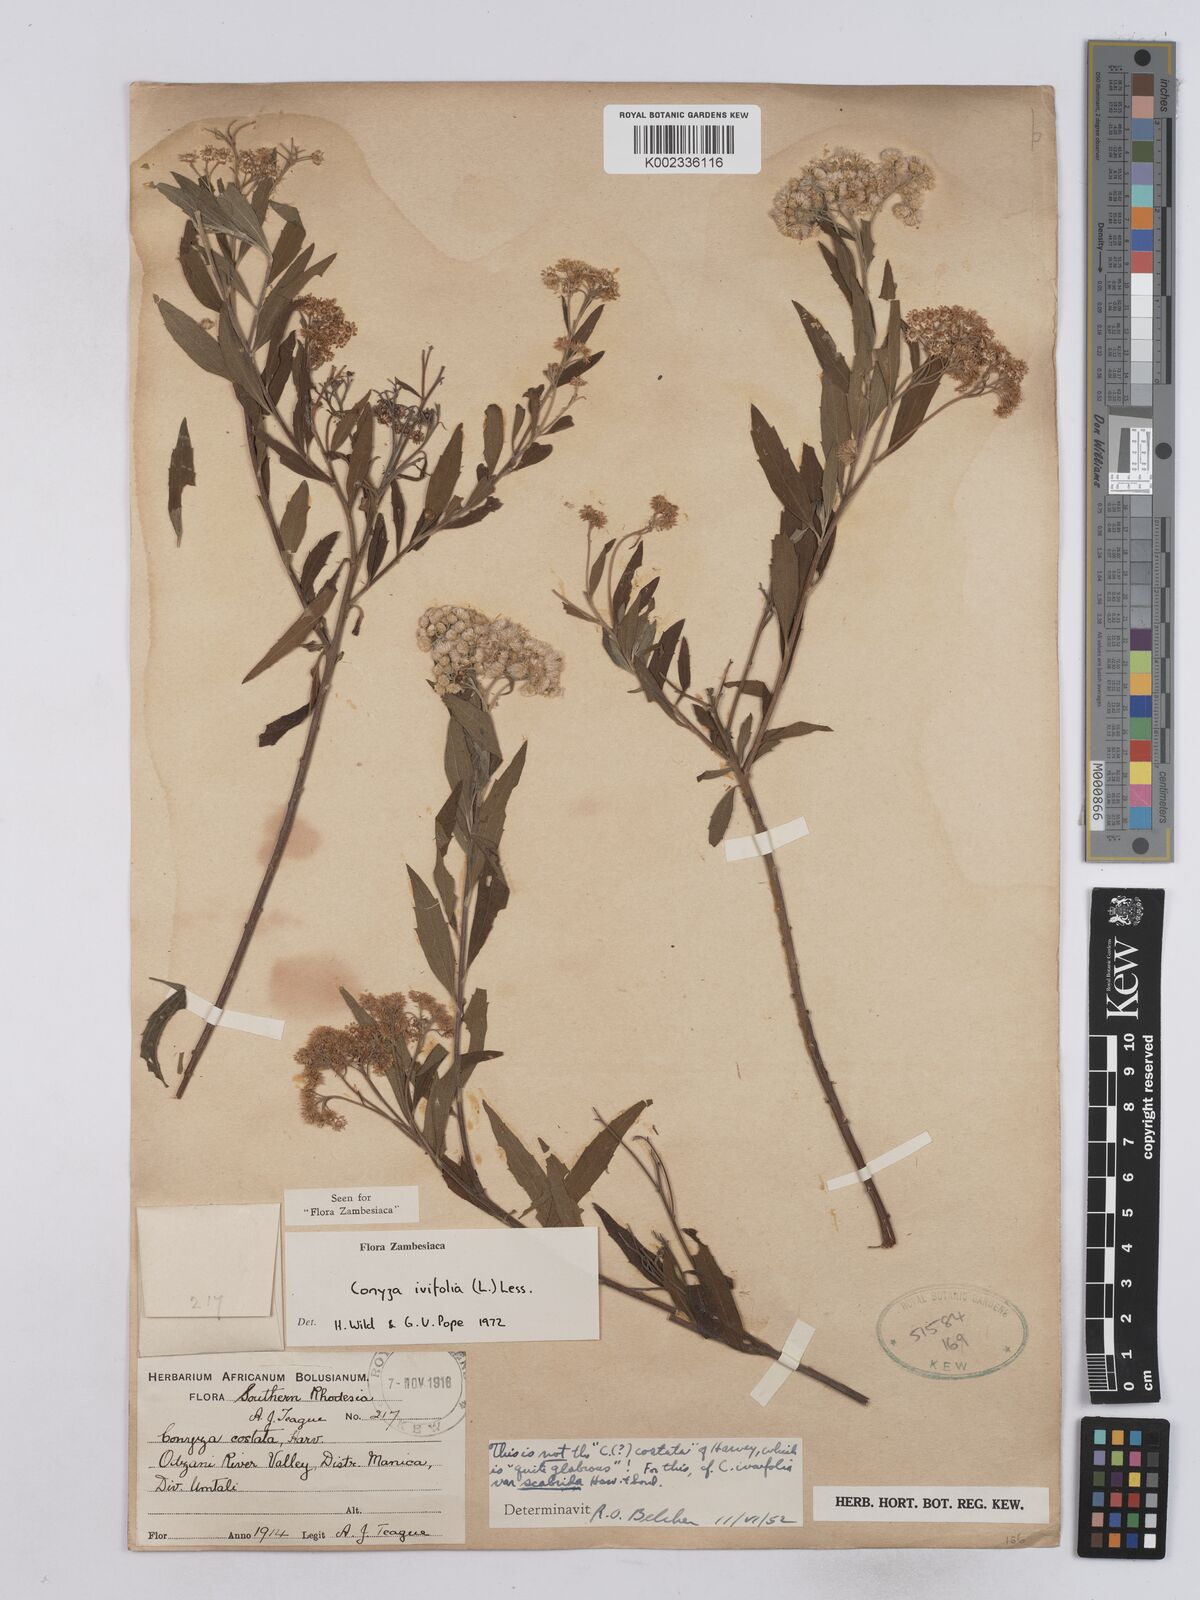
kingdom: Plantae
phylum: Tracheophyta
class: Magnoliopsida
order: Asterales
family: Asteraceae
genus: Nidorella
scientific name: Nidorella ivifolia
